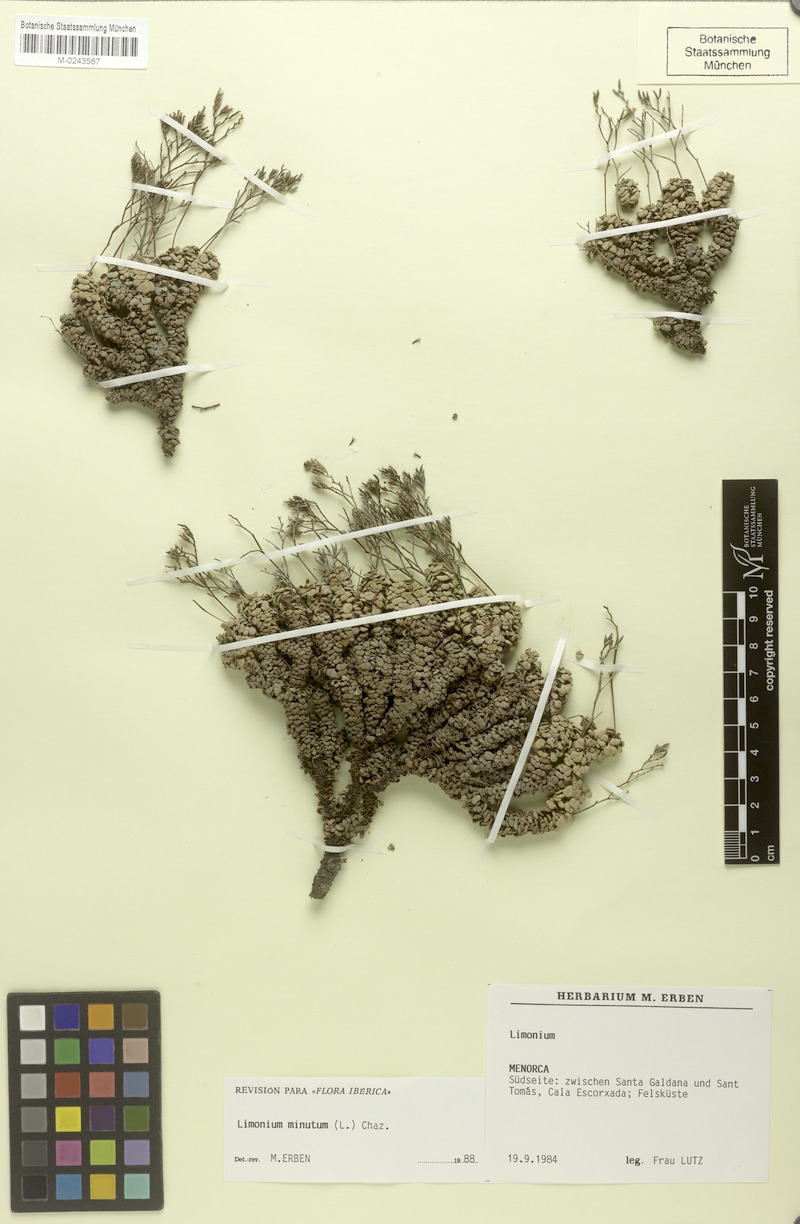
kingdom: Plantae
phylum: Tracheophyta
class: Magnoliopsida
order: Caryophyllales
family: Plumbaginaceae
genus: Limonium
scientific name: Limonium minutum
